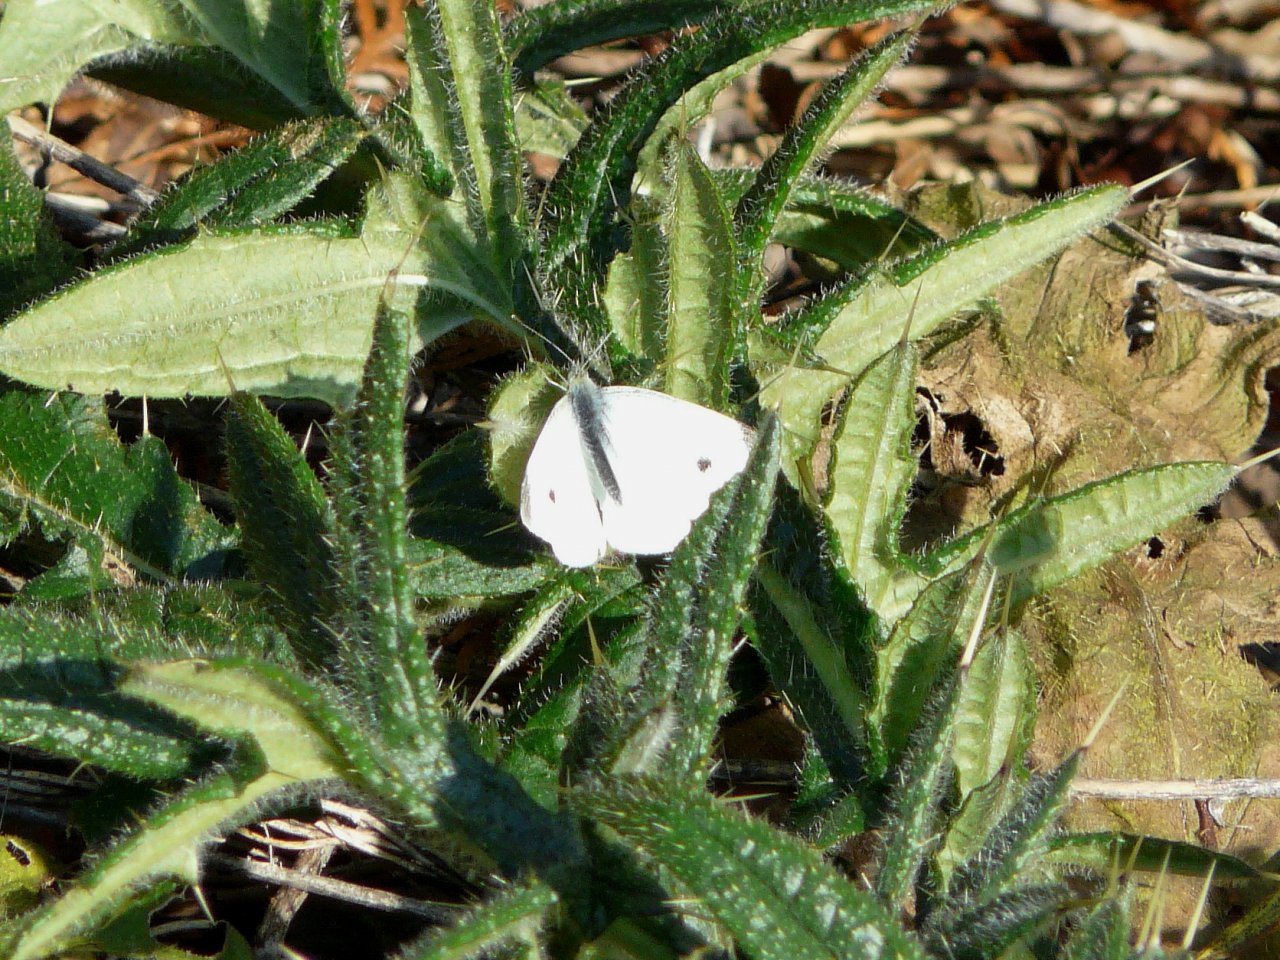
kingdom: Animalia
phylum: Arthropoda
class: Insecta
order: Lepidoptera
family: Pieridae
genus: Pieris
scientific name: Pieris rapae
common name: Cabbage White
